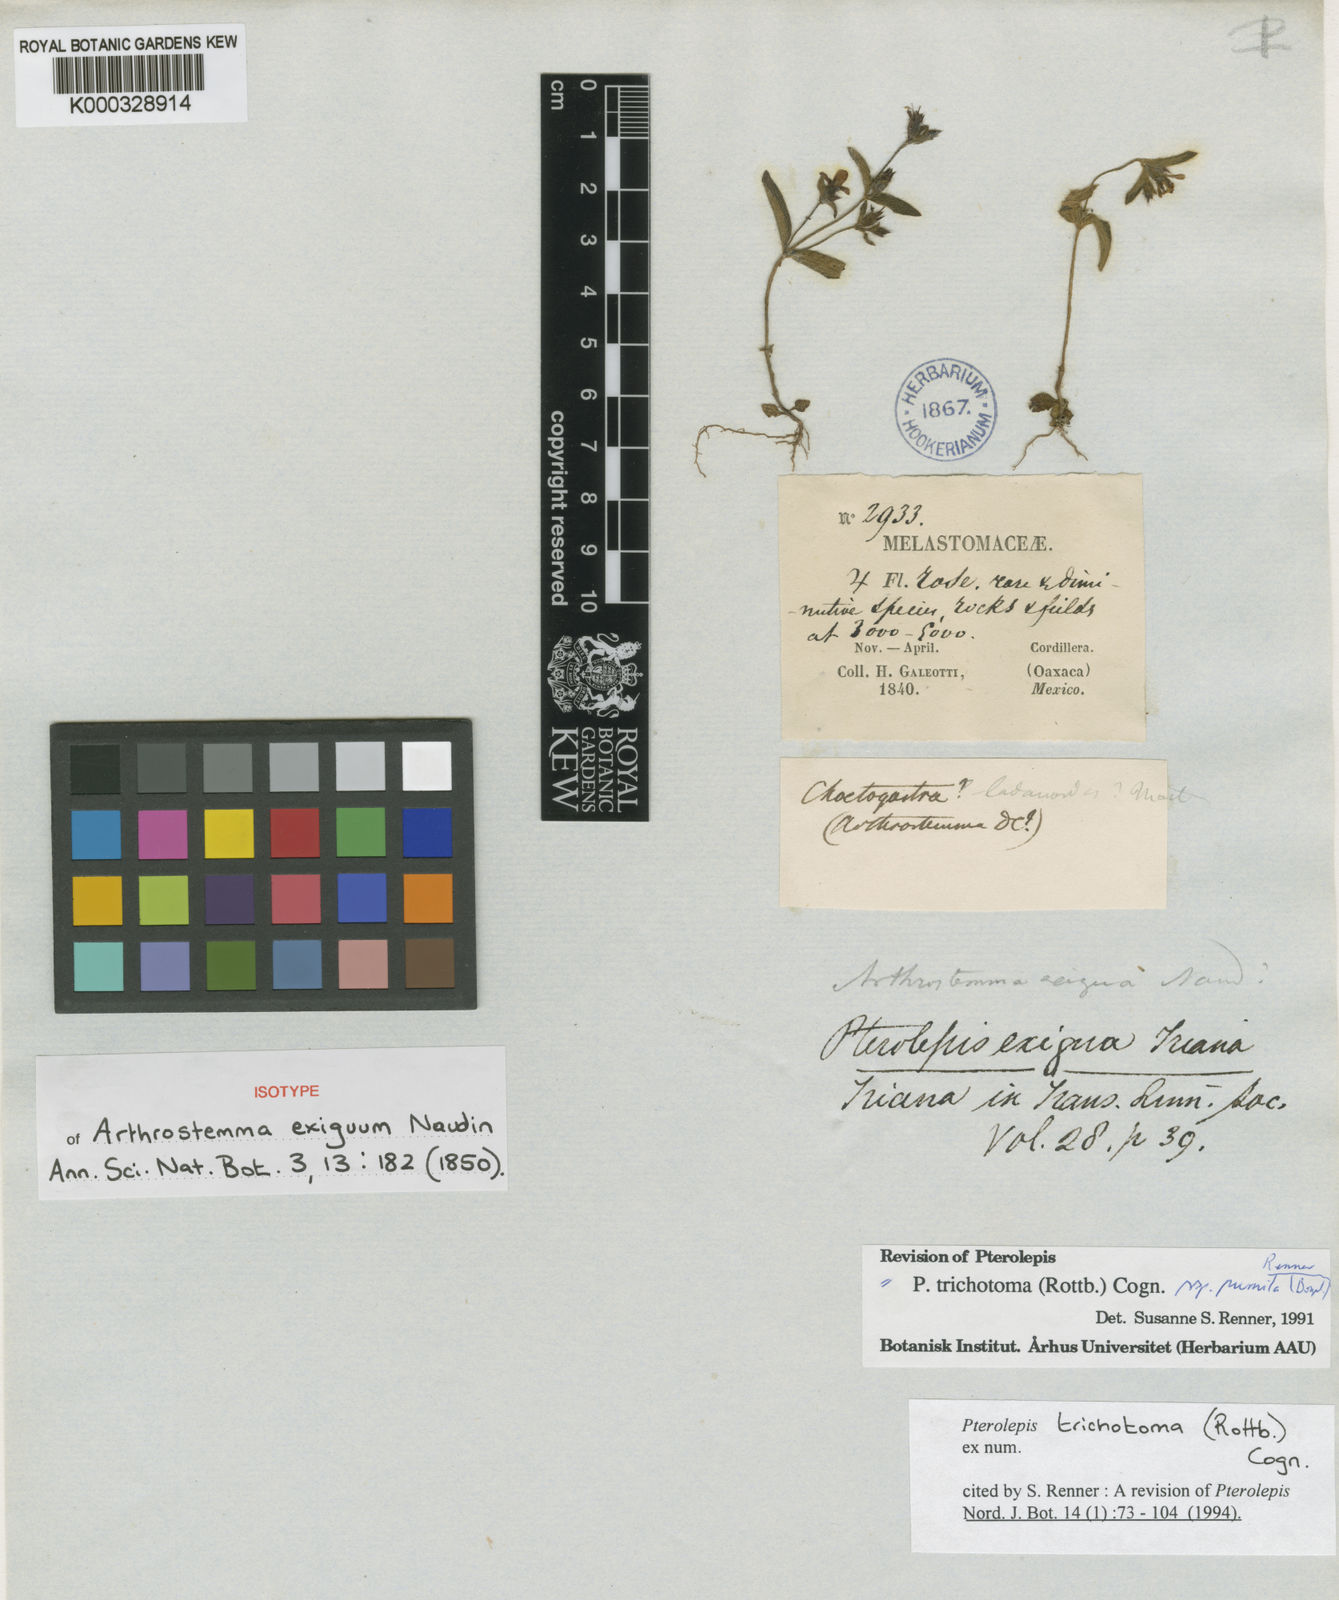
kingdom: Plantae
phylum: Tracheophyta
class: Magnoliopsida
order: Myrtales
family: Melastomataceae
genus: Pterolepis
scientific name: Pterolepis trichotoma
